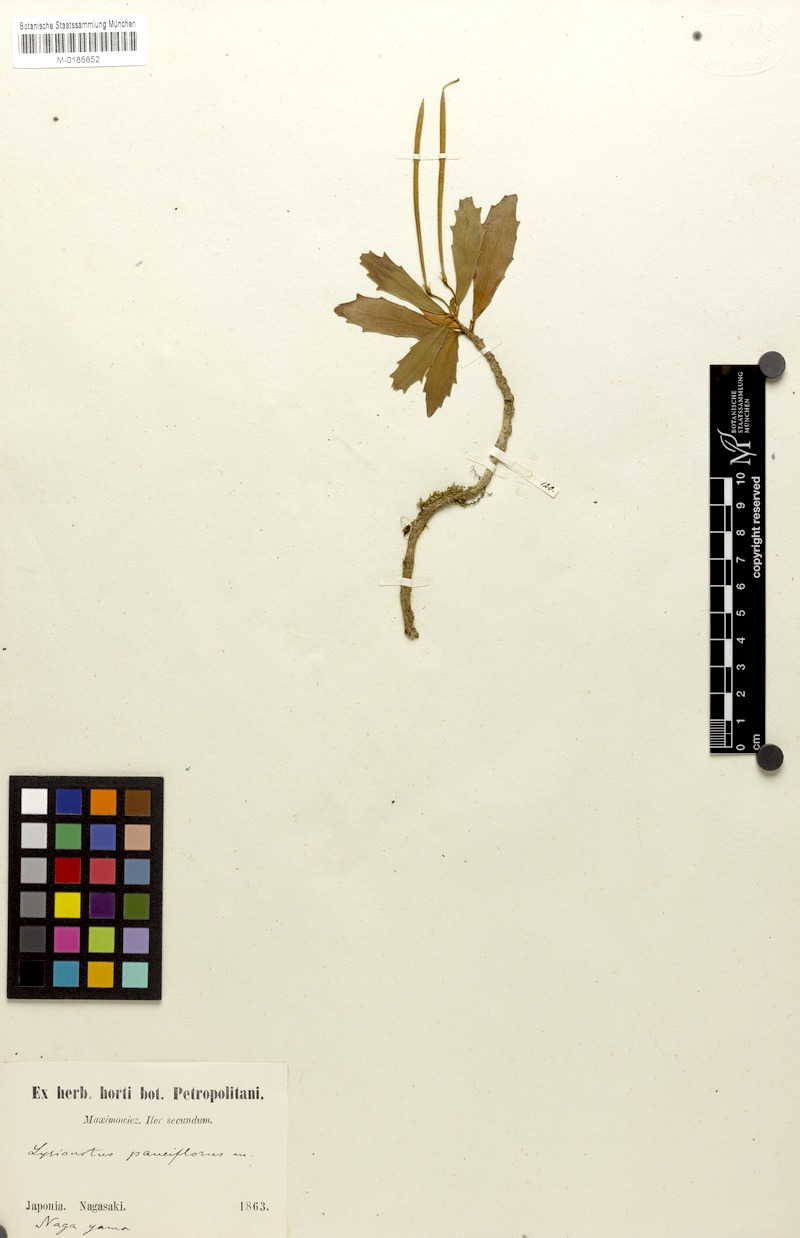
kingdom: Plantae
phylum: Tracheophyta
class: Magnoliopsida
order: Lamiales
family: Gesneriaceae
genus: Lysionotus
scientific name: Lysionotus pauciflorus
